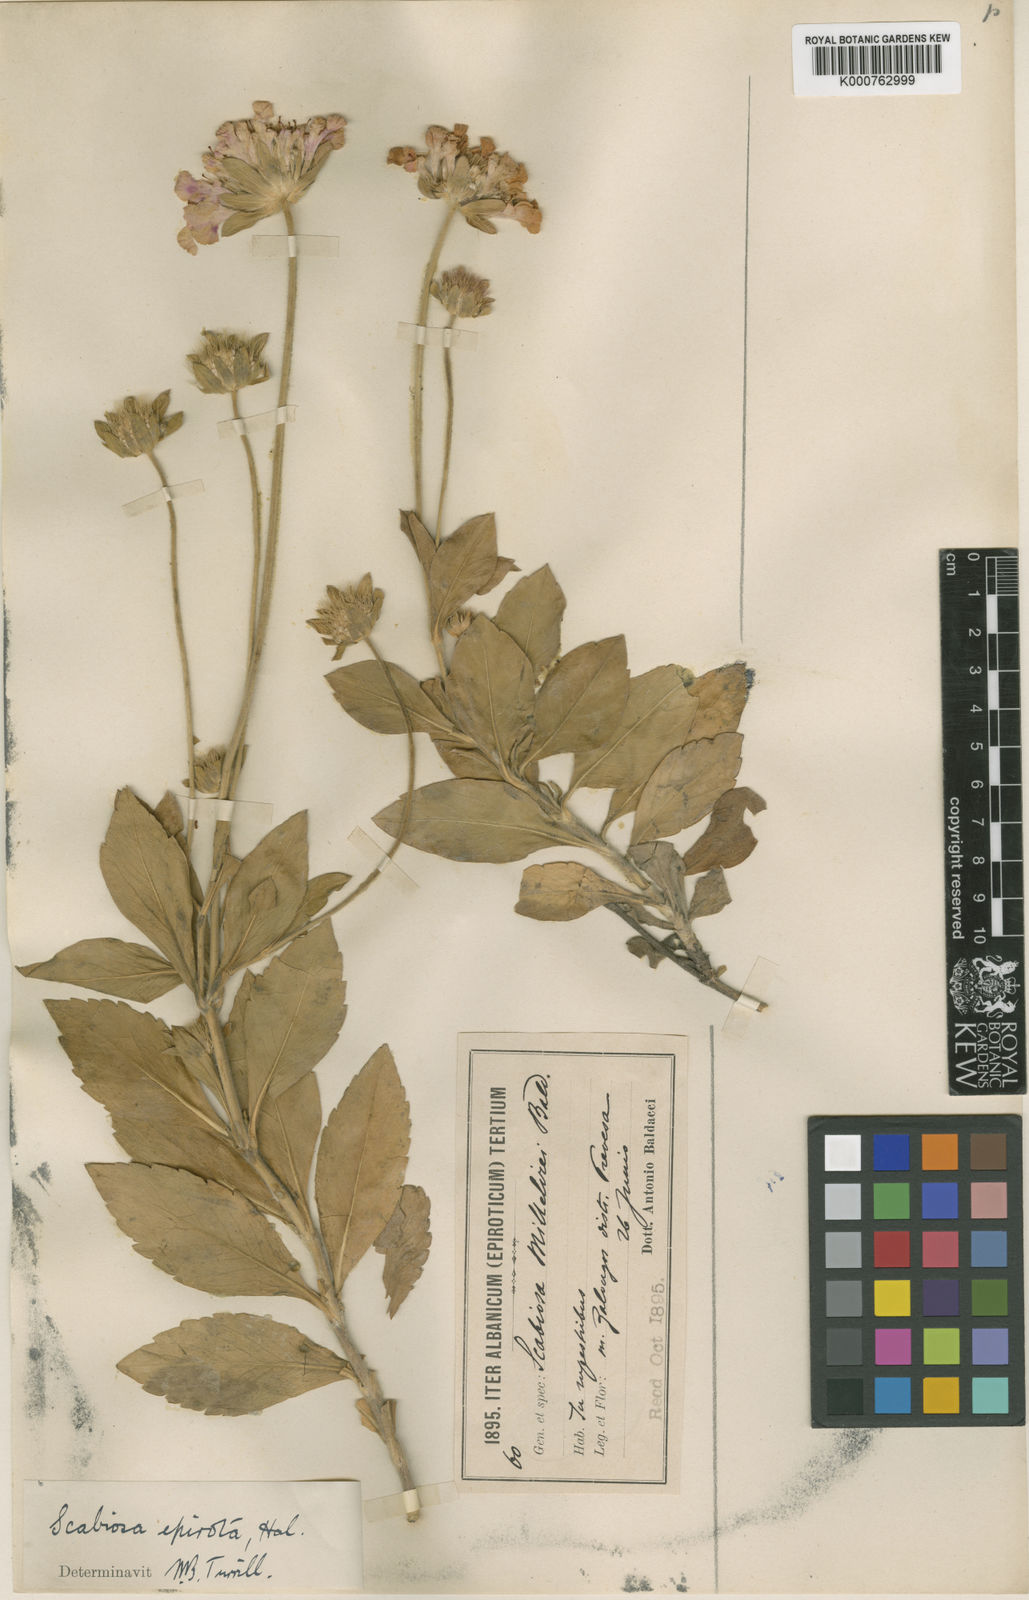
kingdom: Plantae
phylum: Tracheophyta
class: Magnoliopsida
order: Dipsacales
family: Caprifoliaceae
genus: Scabiosa
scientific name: Scabiosa
